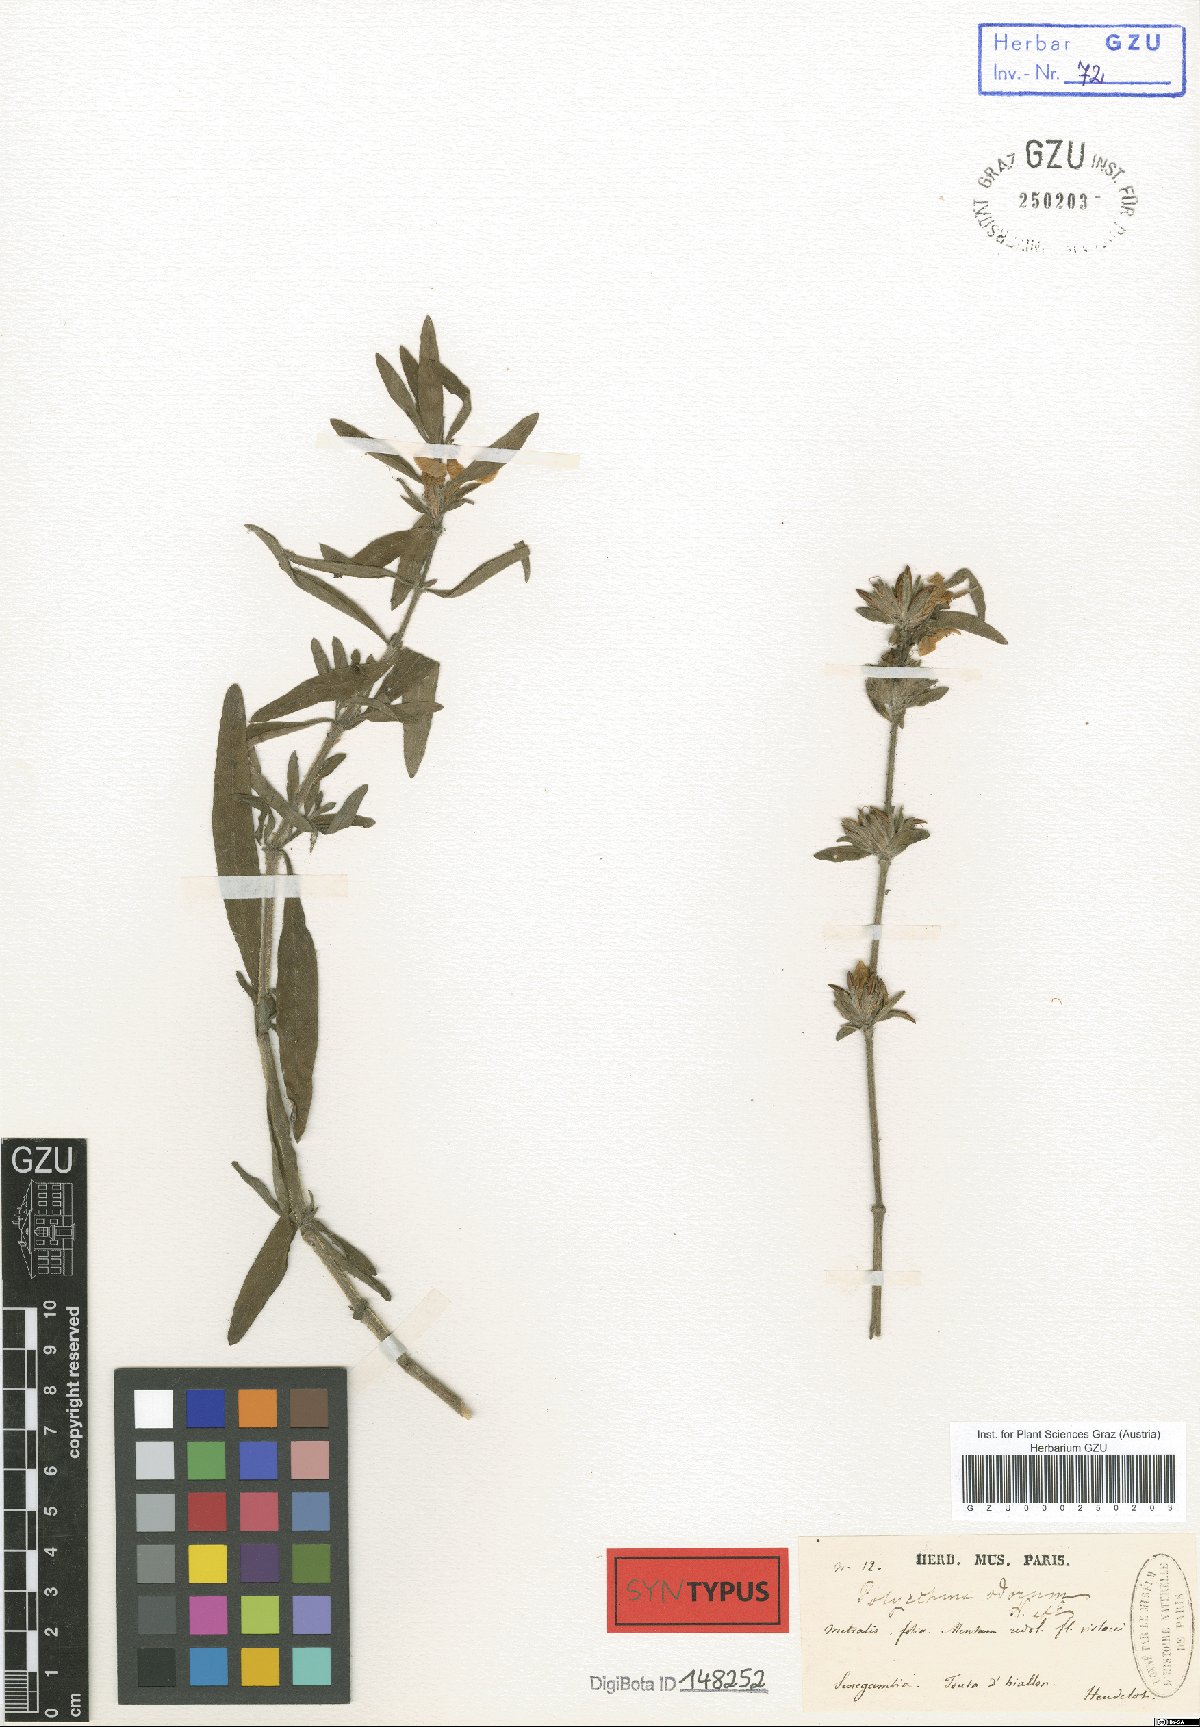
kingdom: Plantae
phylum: Tracheophyta
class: Magnoliopsida
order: Lamiales
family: Acanthaceae
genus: Hygrophila
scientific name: Hygrophila odora
